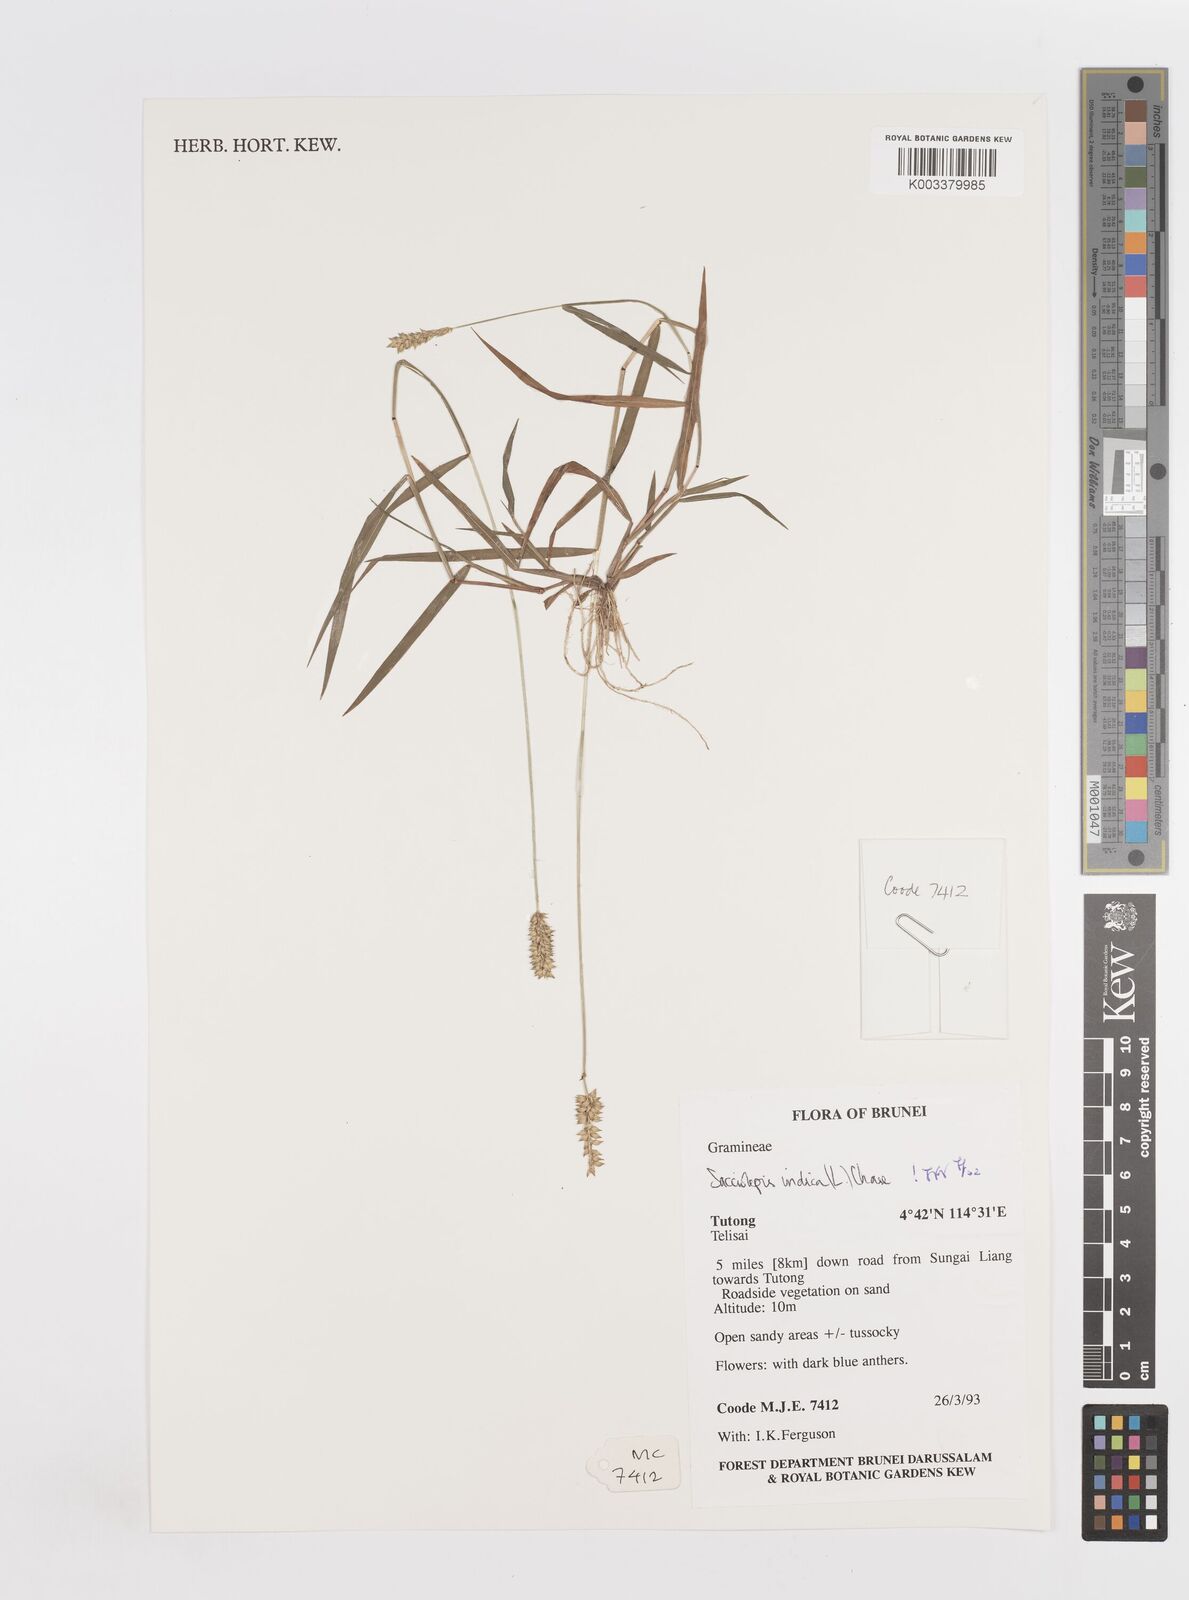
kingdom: Plantae
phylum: Tracheophyta
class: Liliopsida
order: Poales
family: Poaceae
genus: Sacciolepis
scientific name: Sacciolepis indica
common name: Glenwoodgrass
